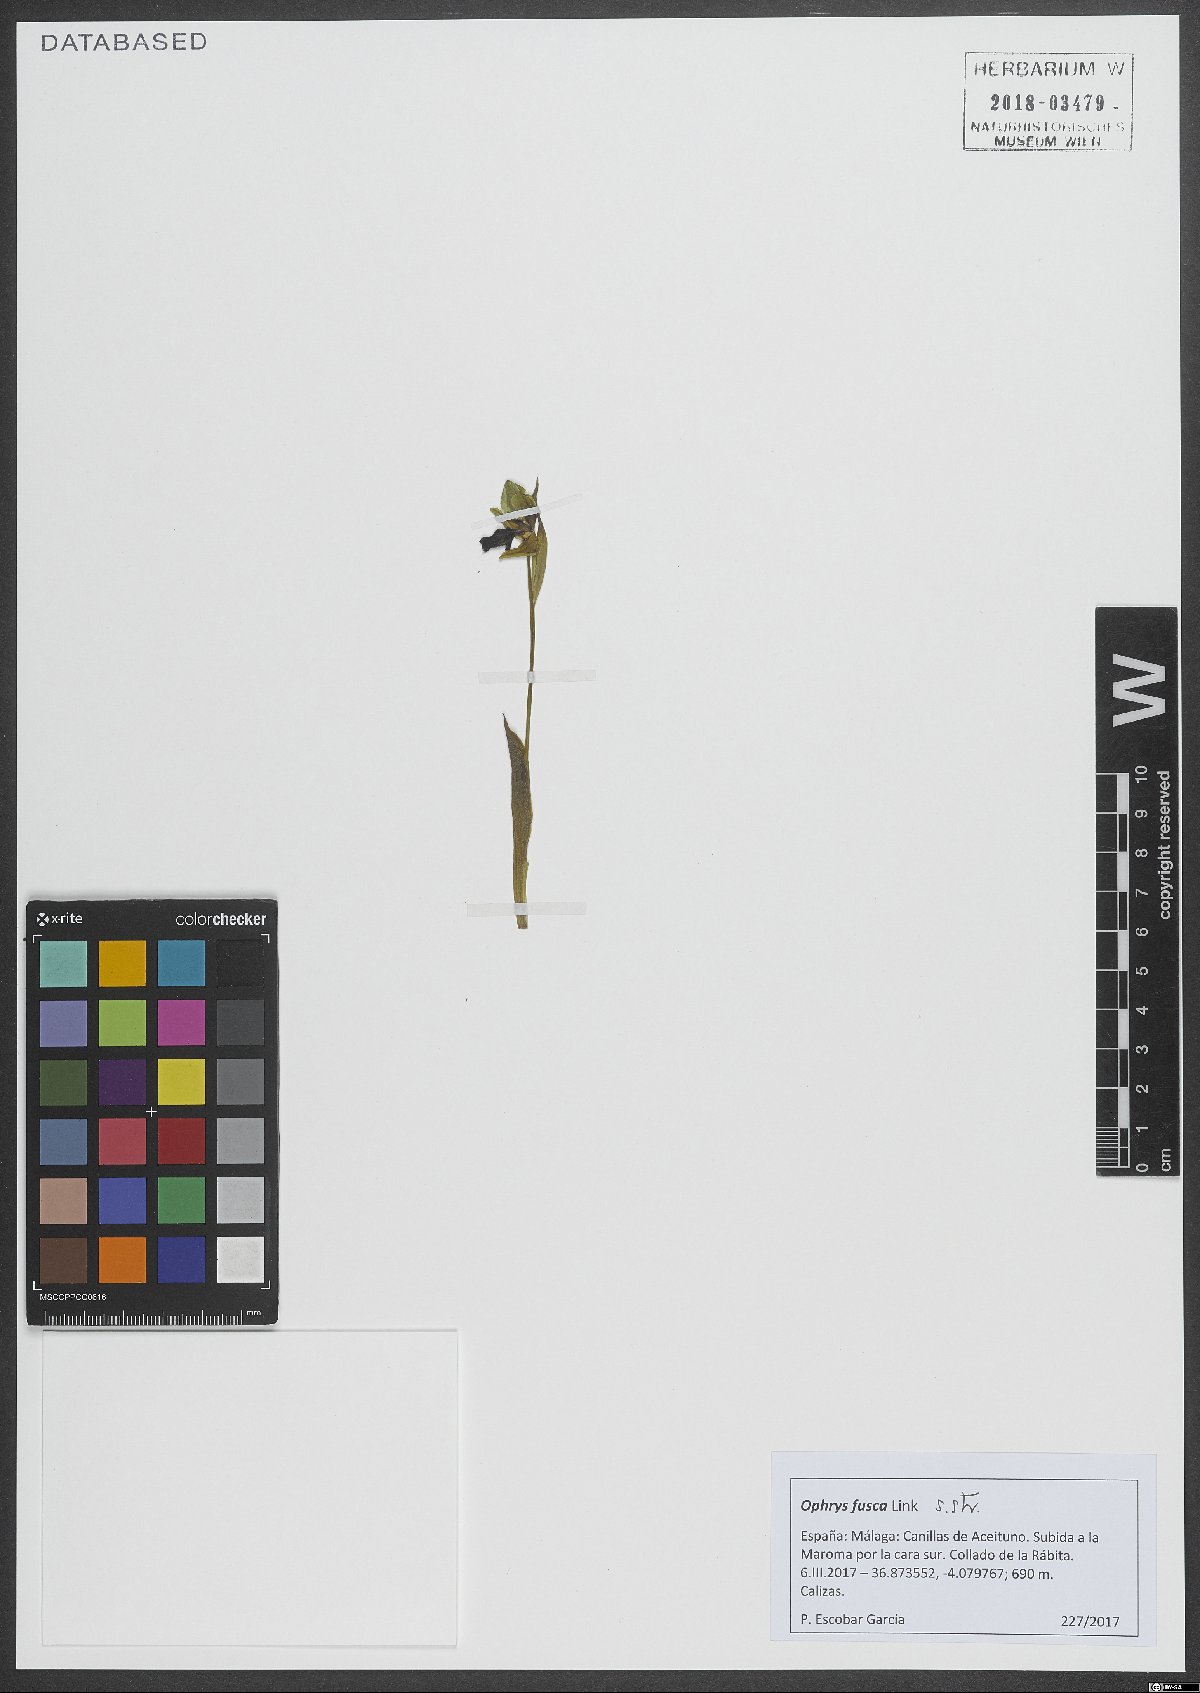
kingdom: Plantae
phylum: Tracheophyta
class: Liliopsida
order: Asparagales
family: Orchidaceae
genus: Ophrys
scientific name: Ophrys fusca
